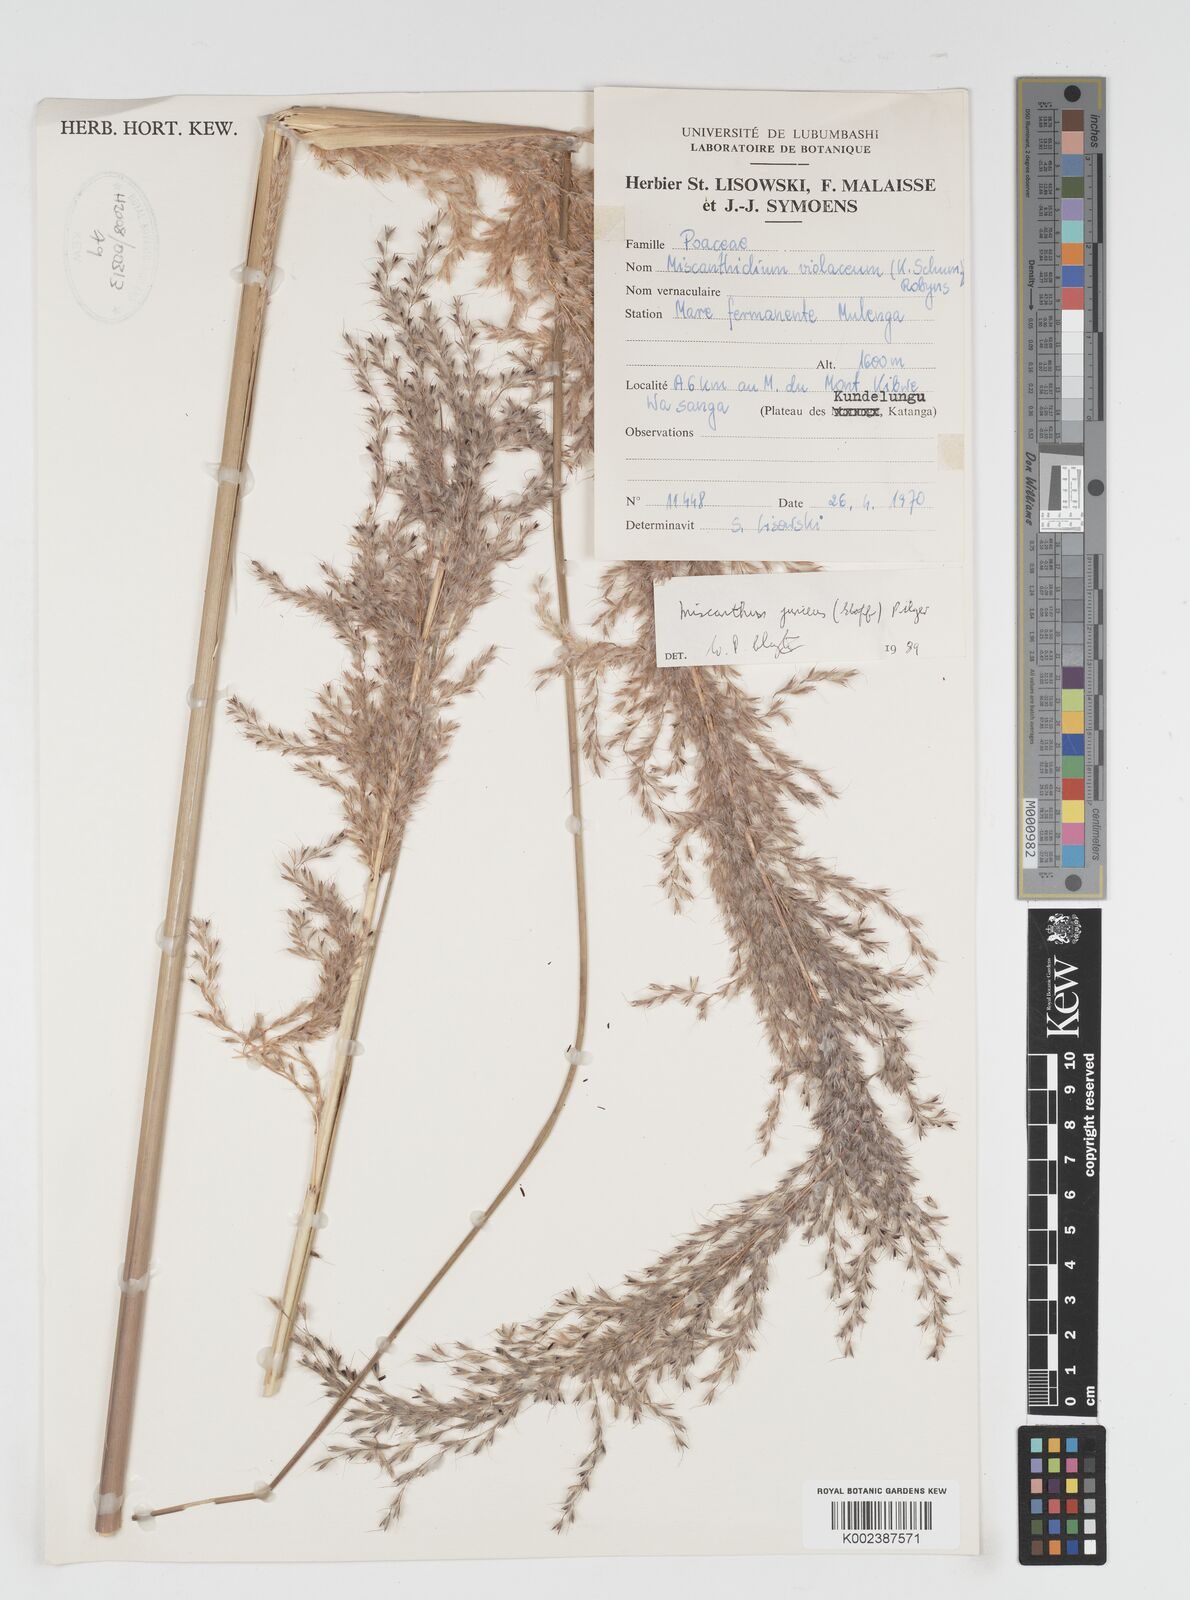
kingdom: Plantae
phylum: Tracheophyta
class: Liliopsida
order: Poales
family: Poaceae
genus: Miscanthidium
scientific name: Miscanthidium junceum
